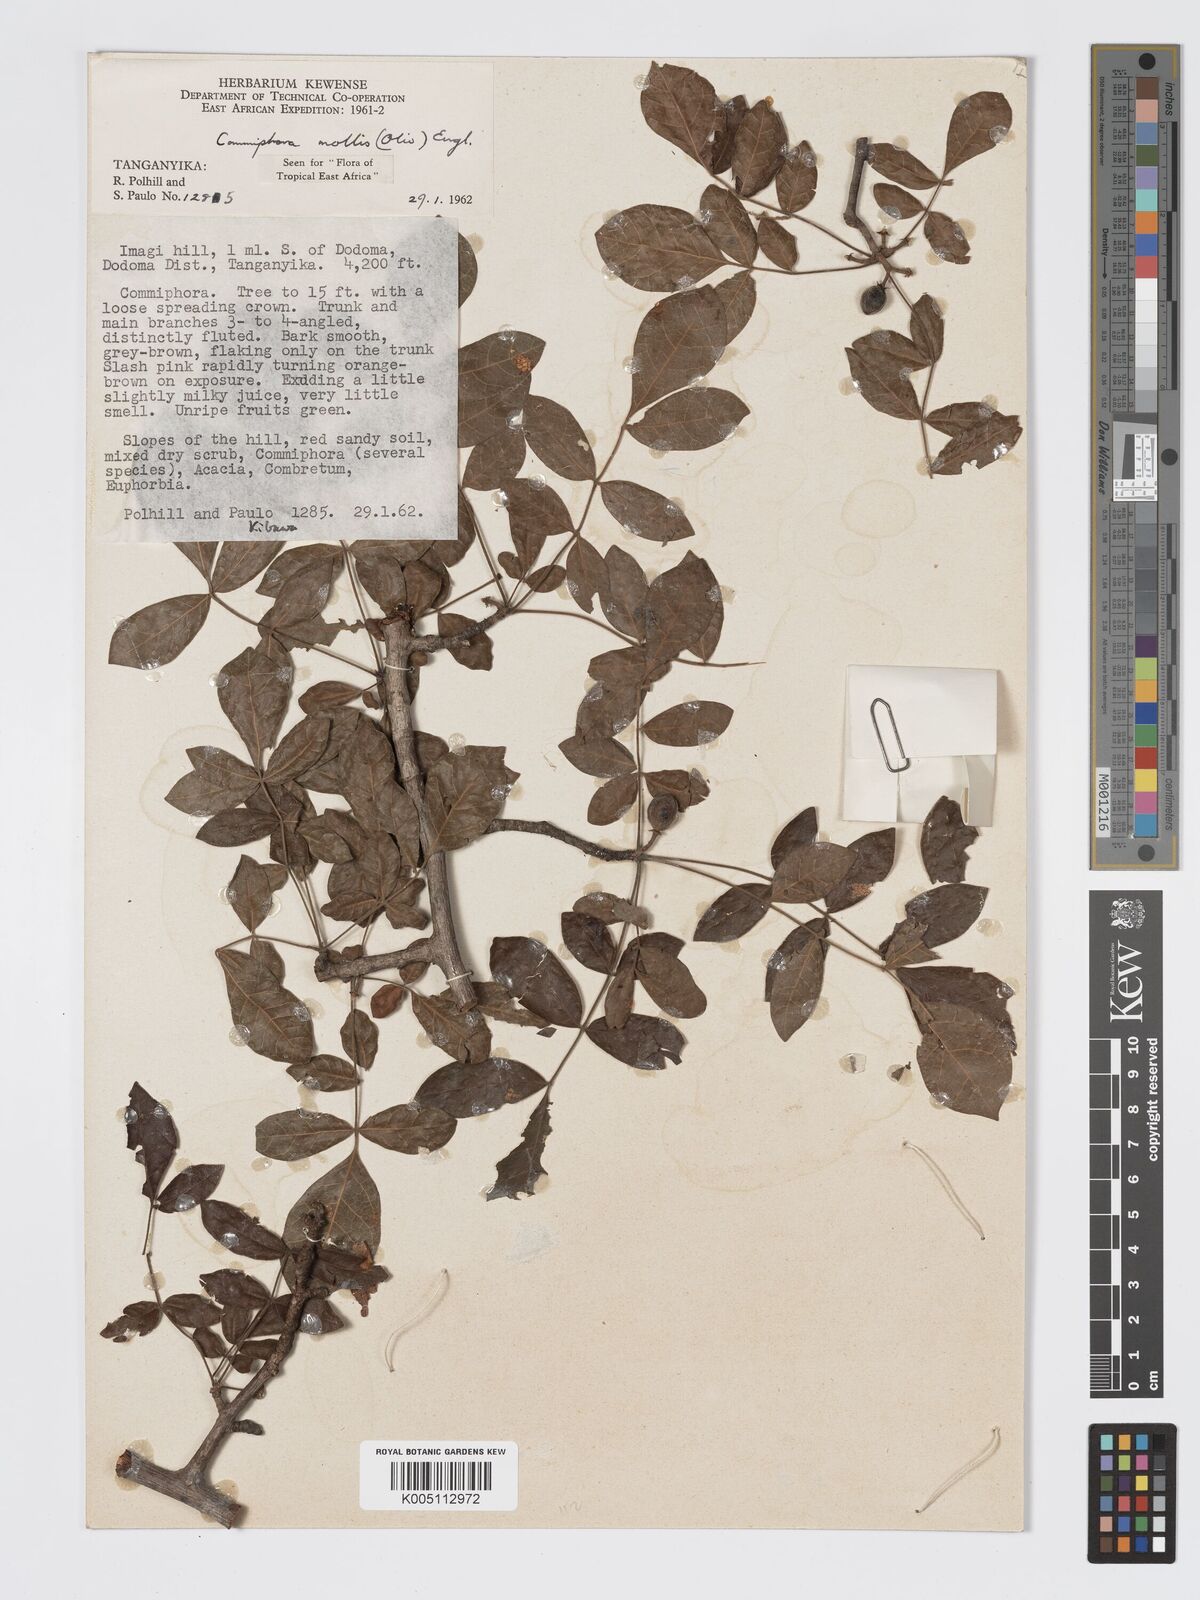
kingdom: Plantae
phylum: Tracheophyta
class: Magnoliopsida
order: Sapindales
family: Burseraceae
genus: Commiphora
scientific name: Commiphora
